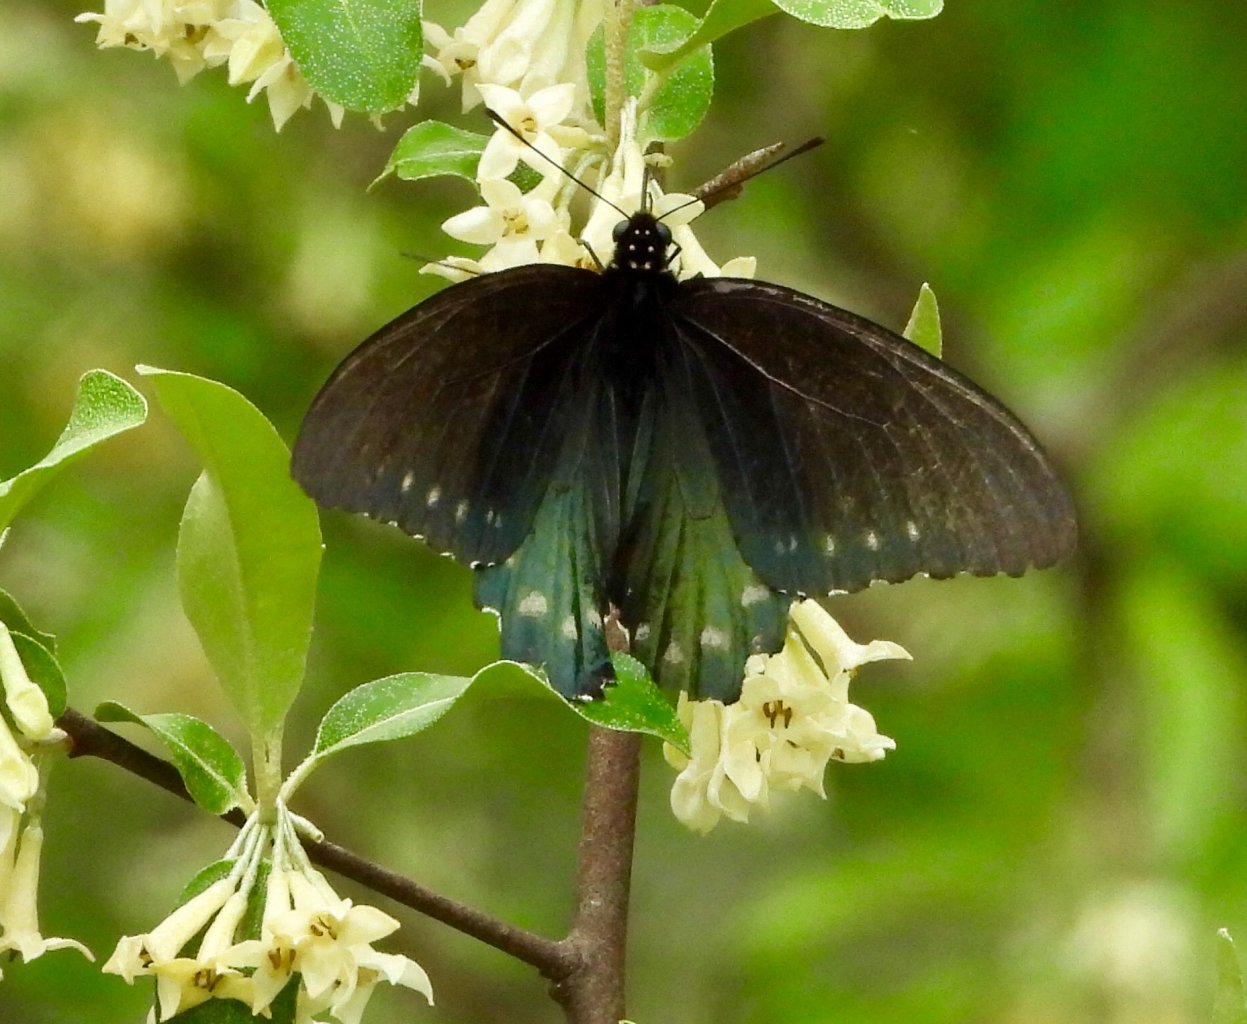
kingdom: Animalia
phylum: Arthropoda
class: Insecta
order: Lepidoptera
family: Papilionidae
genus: Battus
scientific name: Battus philenor
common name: Pipevine Swallowtail
